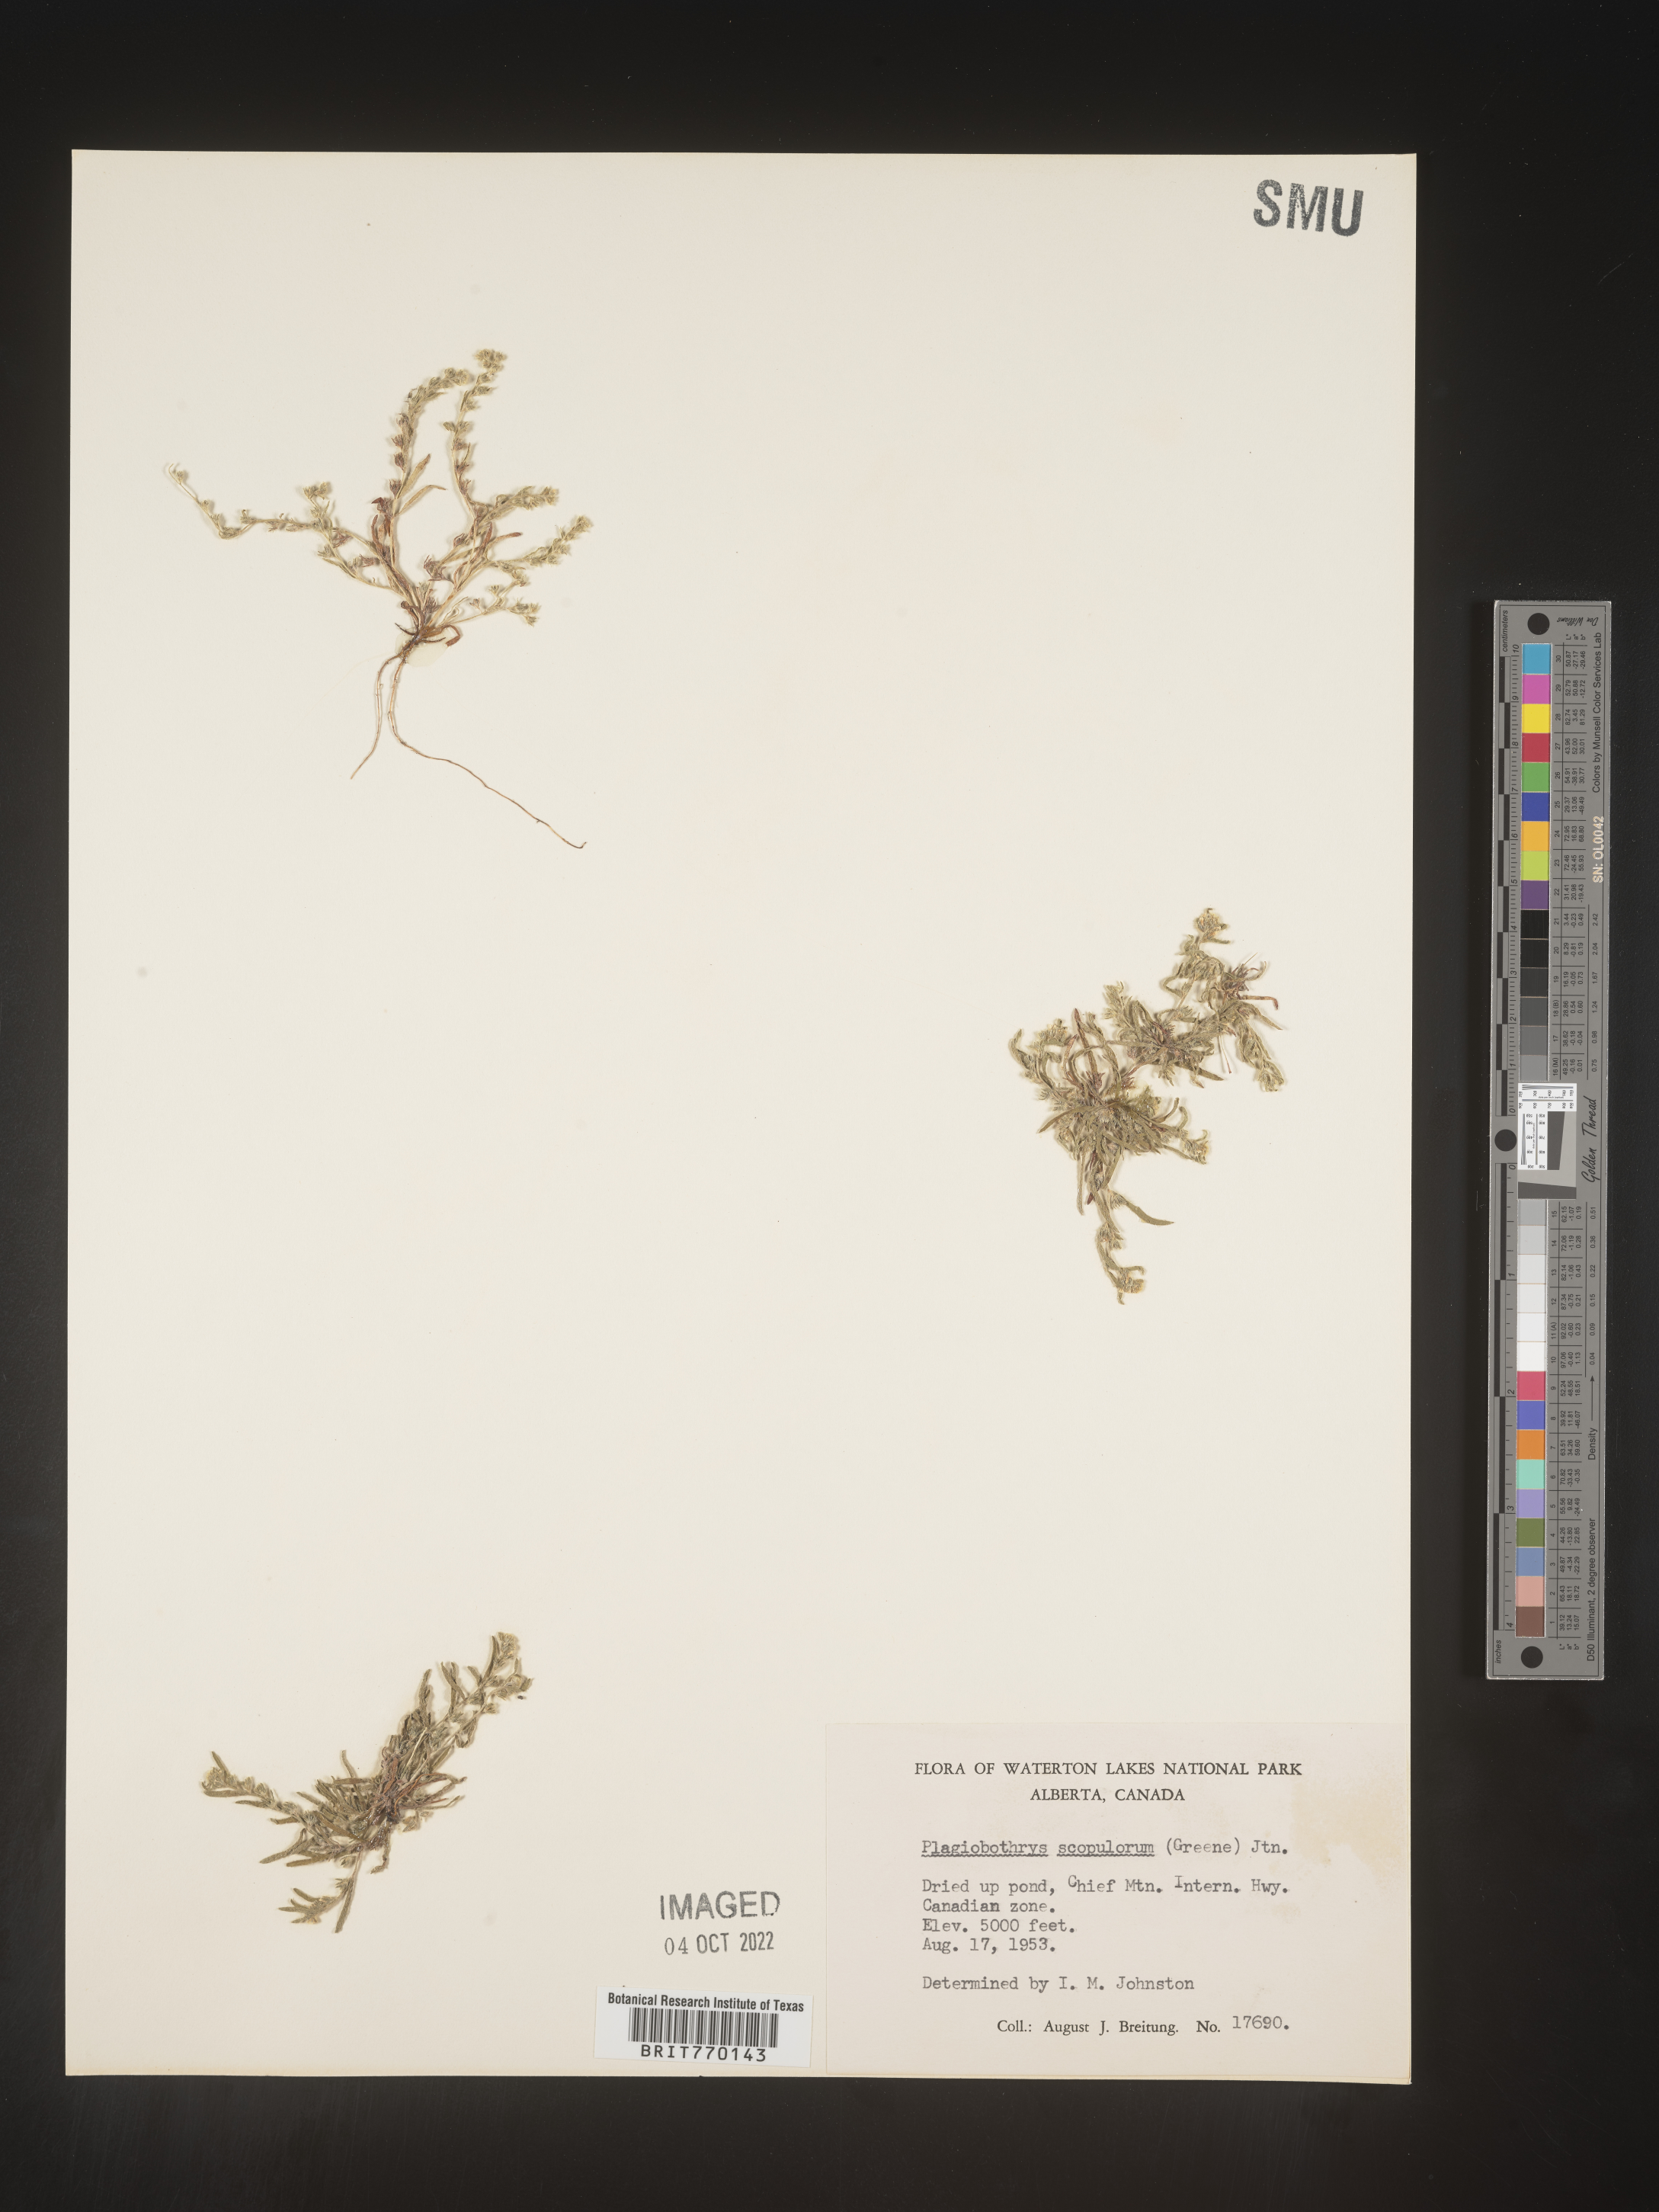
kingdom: Plantae
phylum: Tracheophyta
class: Magnoliopsida
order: Boraginales
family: Boraginaceae
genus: Plagiobothrys
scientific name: Plagiobothrys
